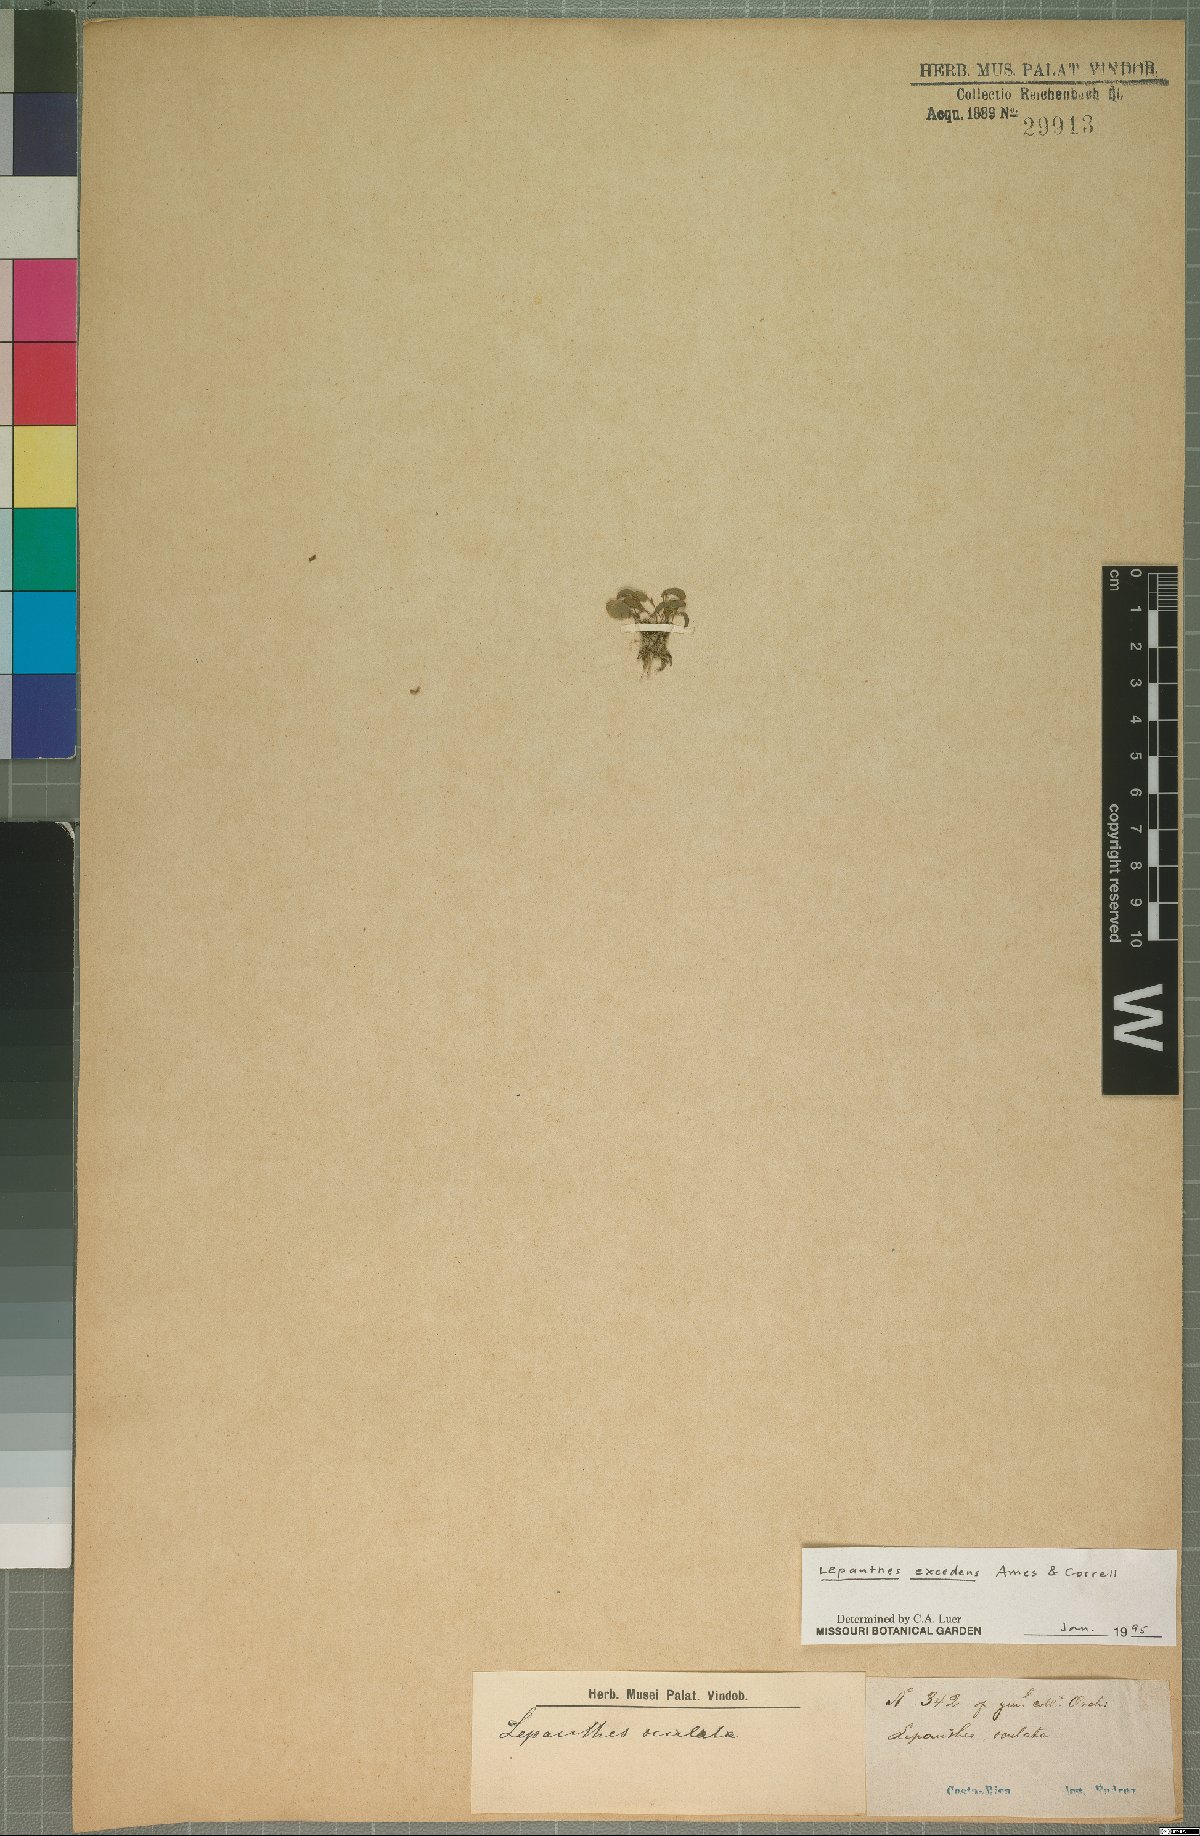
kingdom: Plantae
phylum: Tracheophyta
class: Liliopsida
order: Asparagales
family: Orchidaceae
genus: Lepanthes
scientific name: Lepanthes excedens
